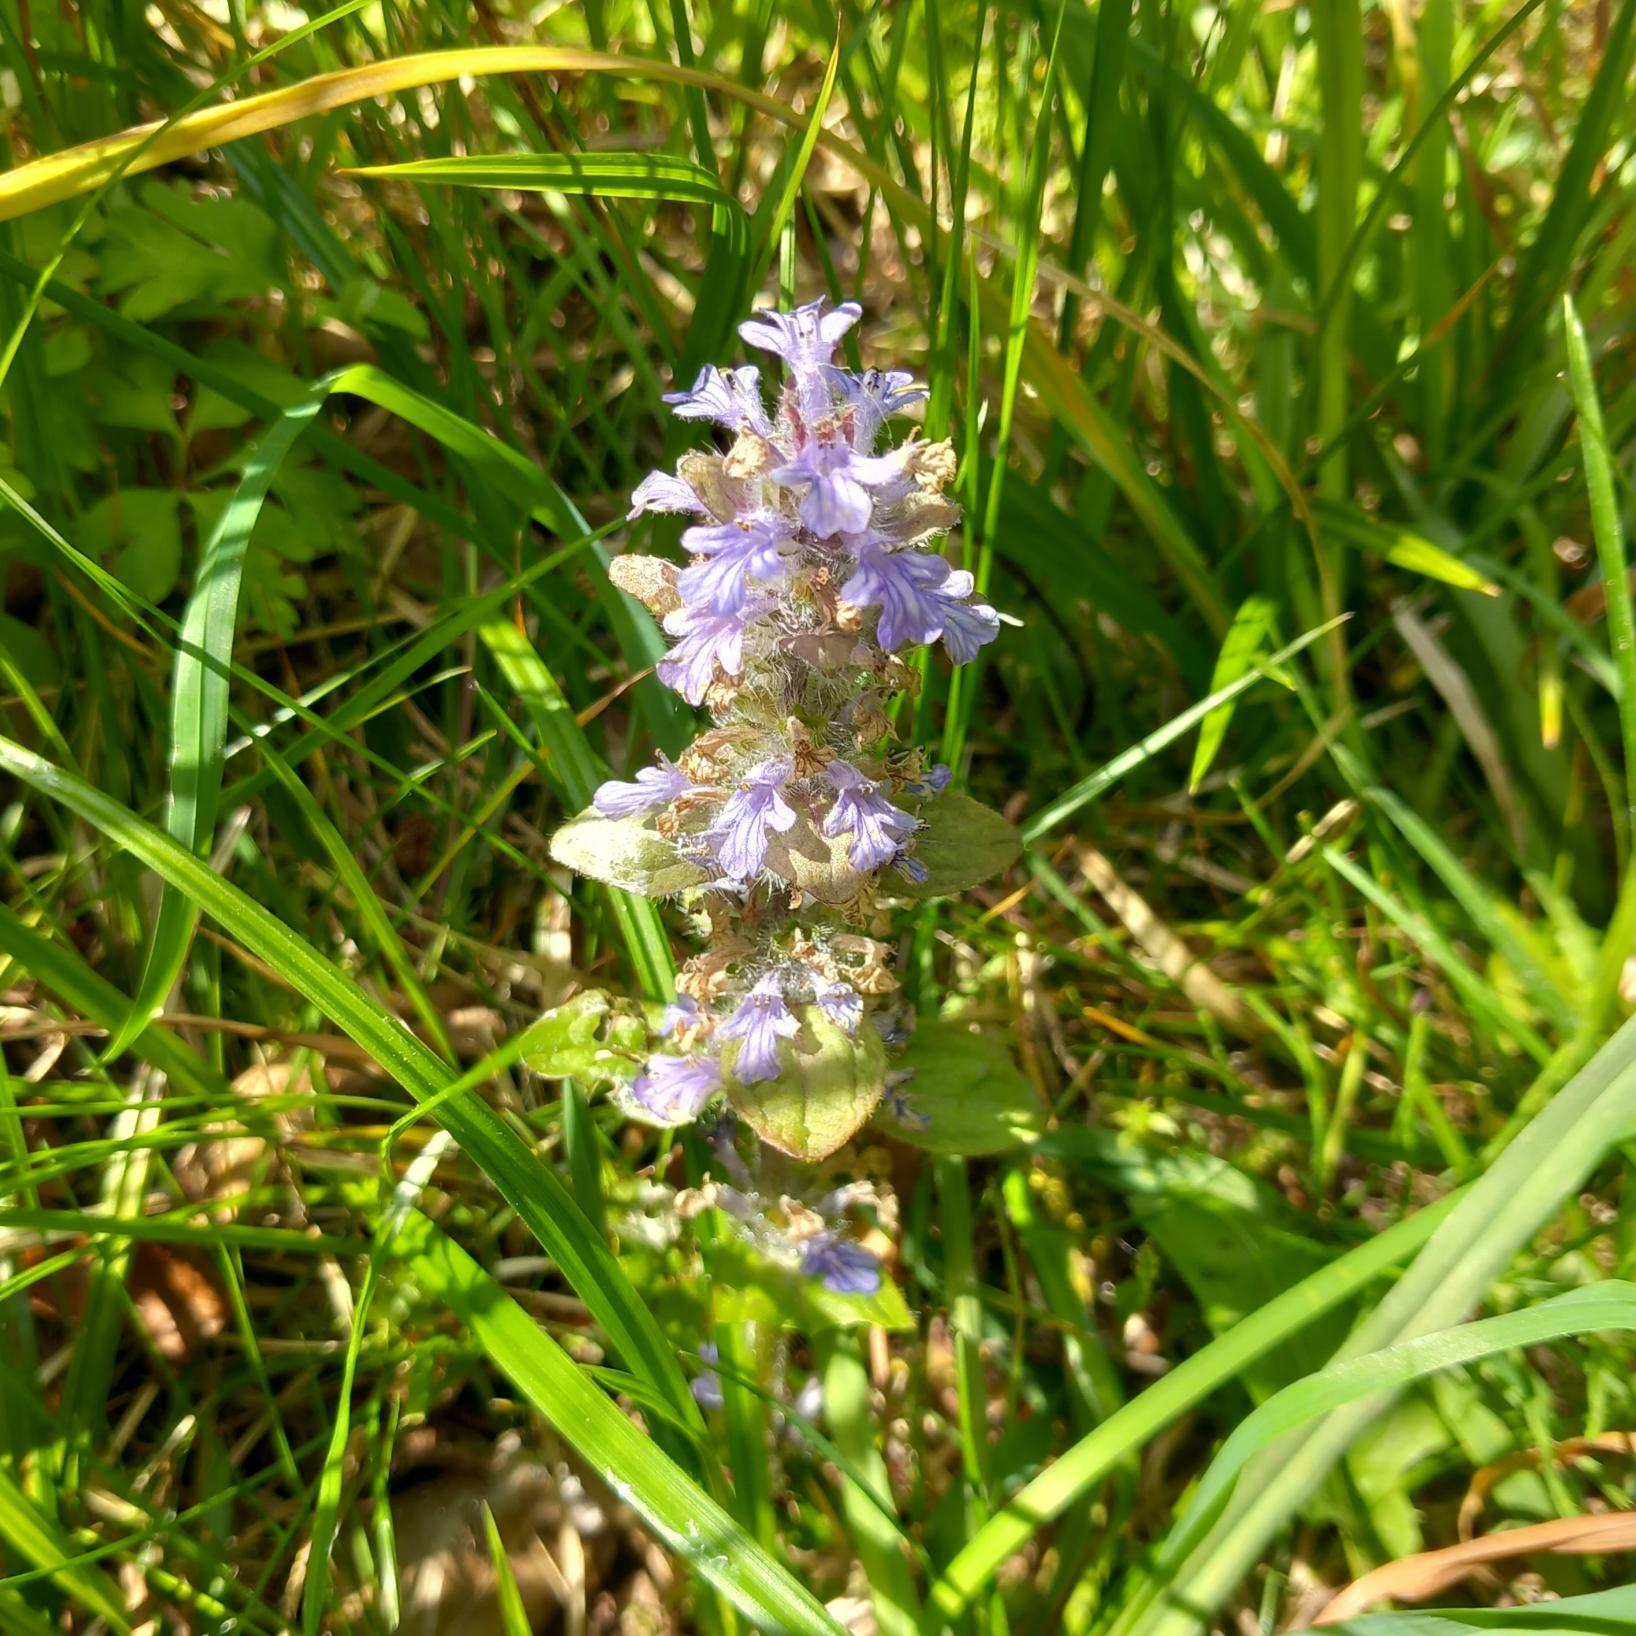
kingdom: Plantae
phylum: Tracheophyta
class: Magnoliopsida
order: Lamiales
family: Lamiaceae
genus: Ajuga
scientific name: Ajuga reptans
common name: Krybende læbeløs
